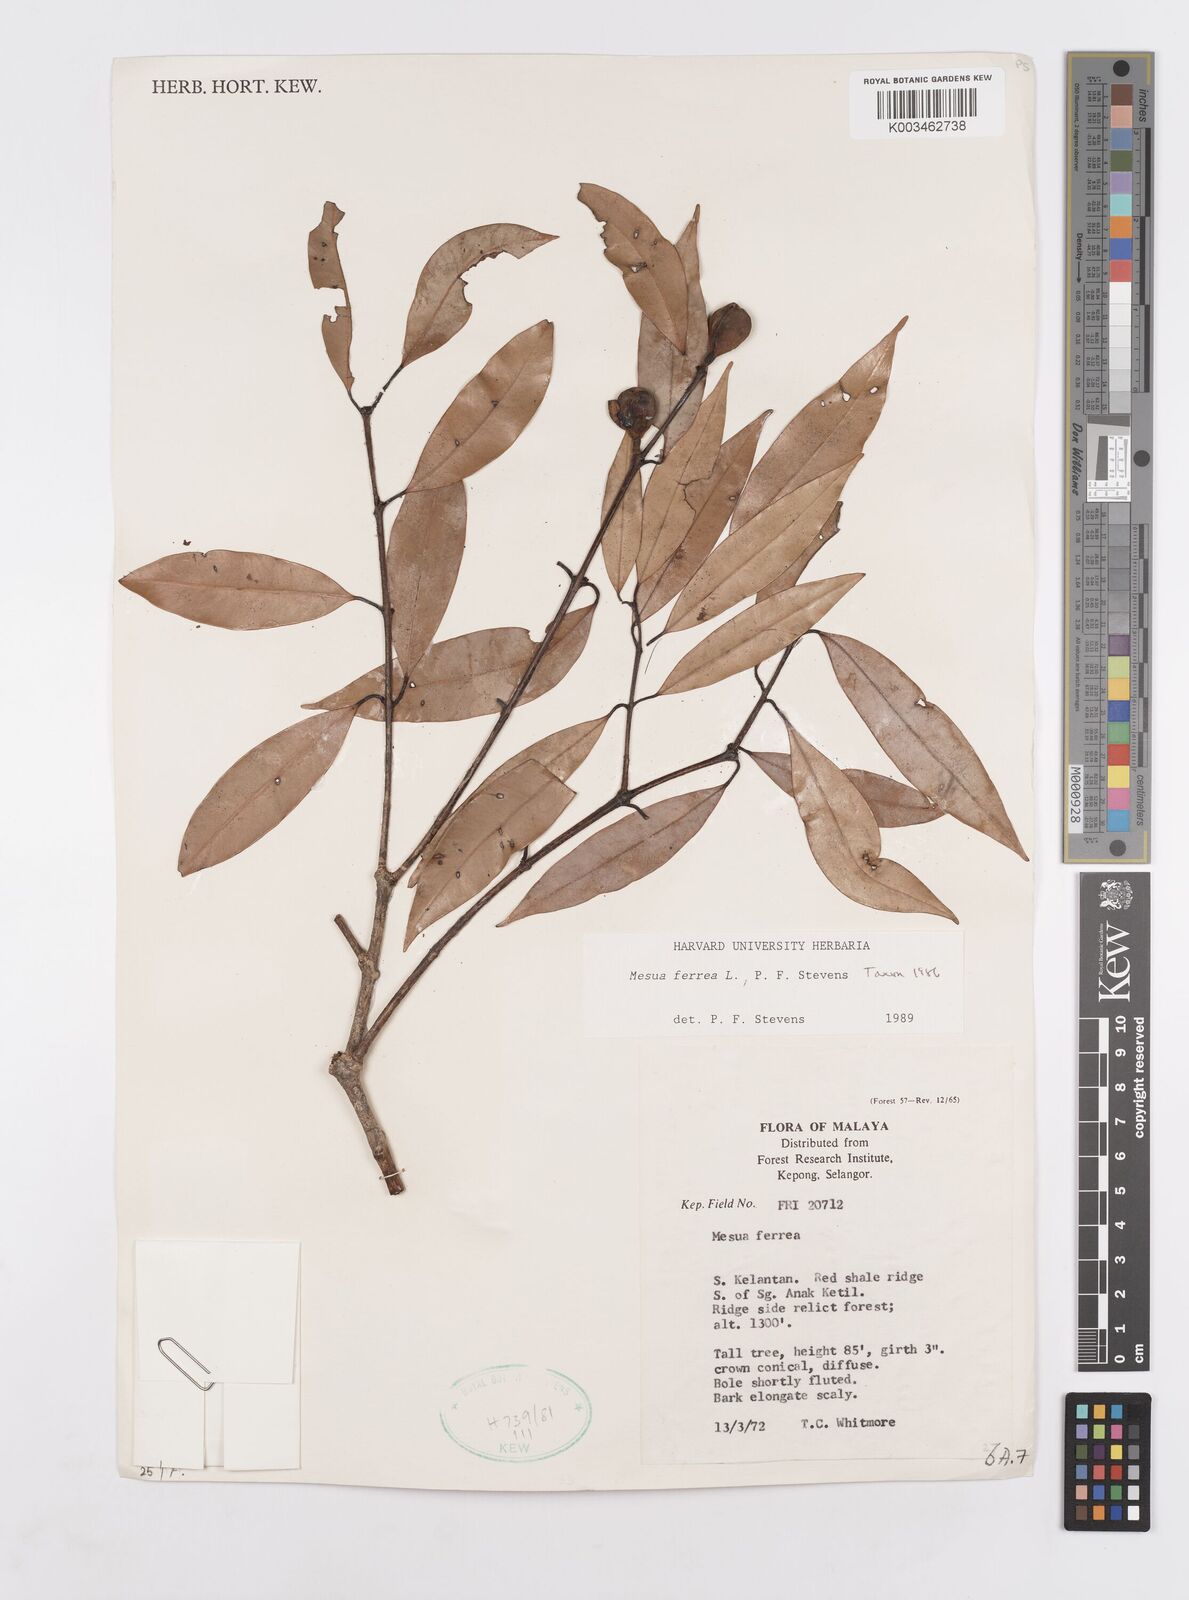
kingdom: Plantae
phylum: Tracheophyta
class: Magnoliopsida
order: Malpighiales
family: Calophyllaceae
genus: Mesua
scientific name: Mesua ferrea
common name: Mesua
